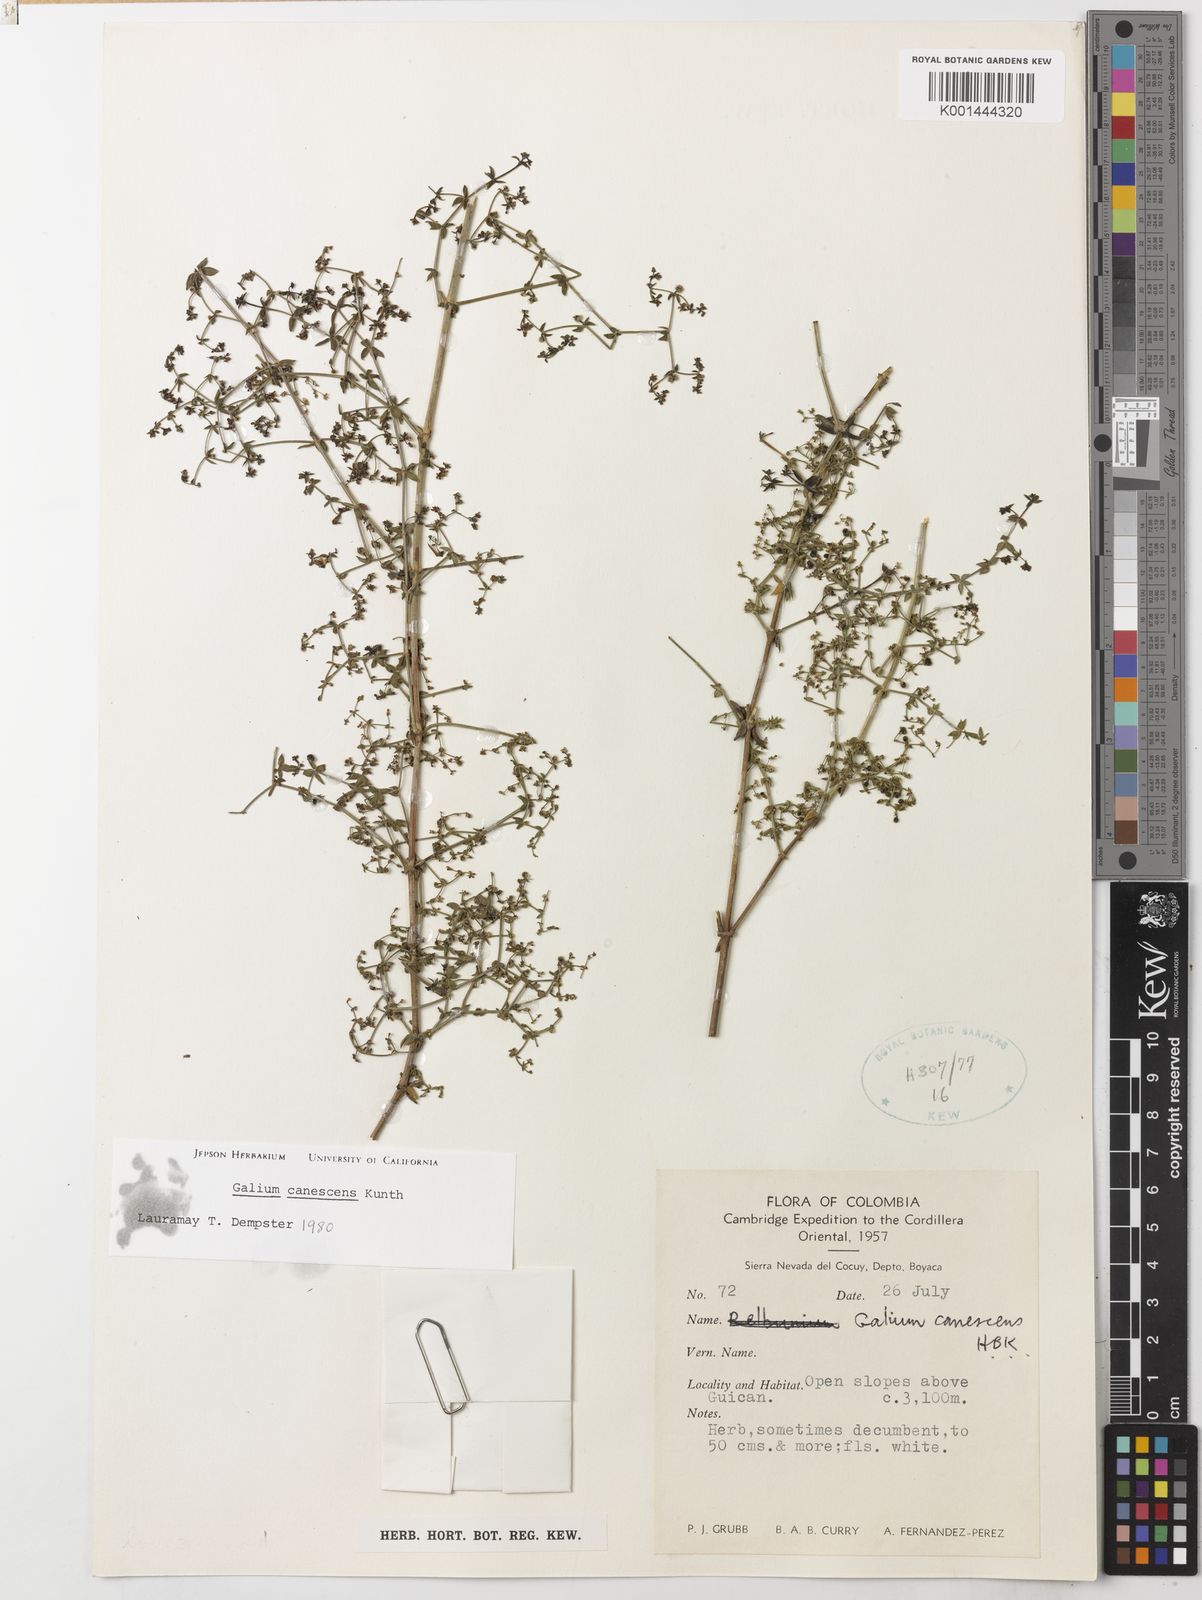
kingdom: Plantae
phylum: Tracheophyta
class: Magnoliopsida
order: Gentianales
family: Rubiaceae
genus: Galium
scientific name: Galium canescens
